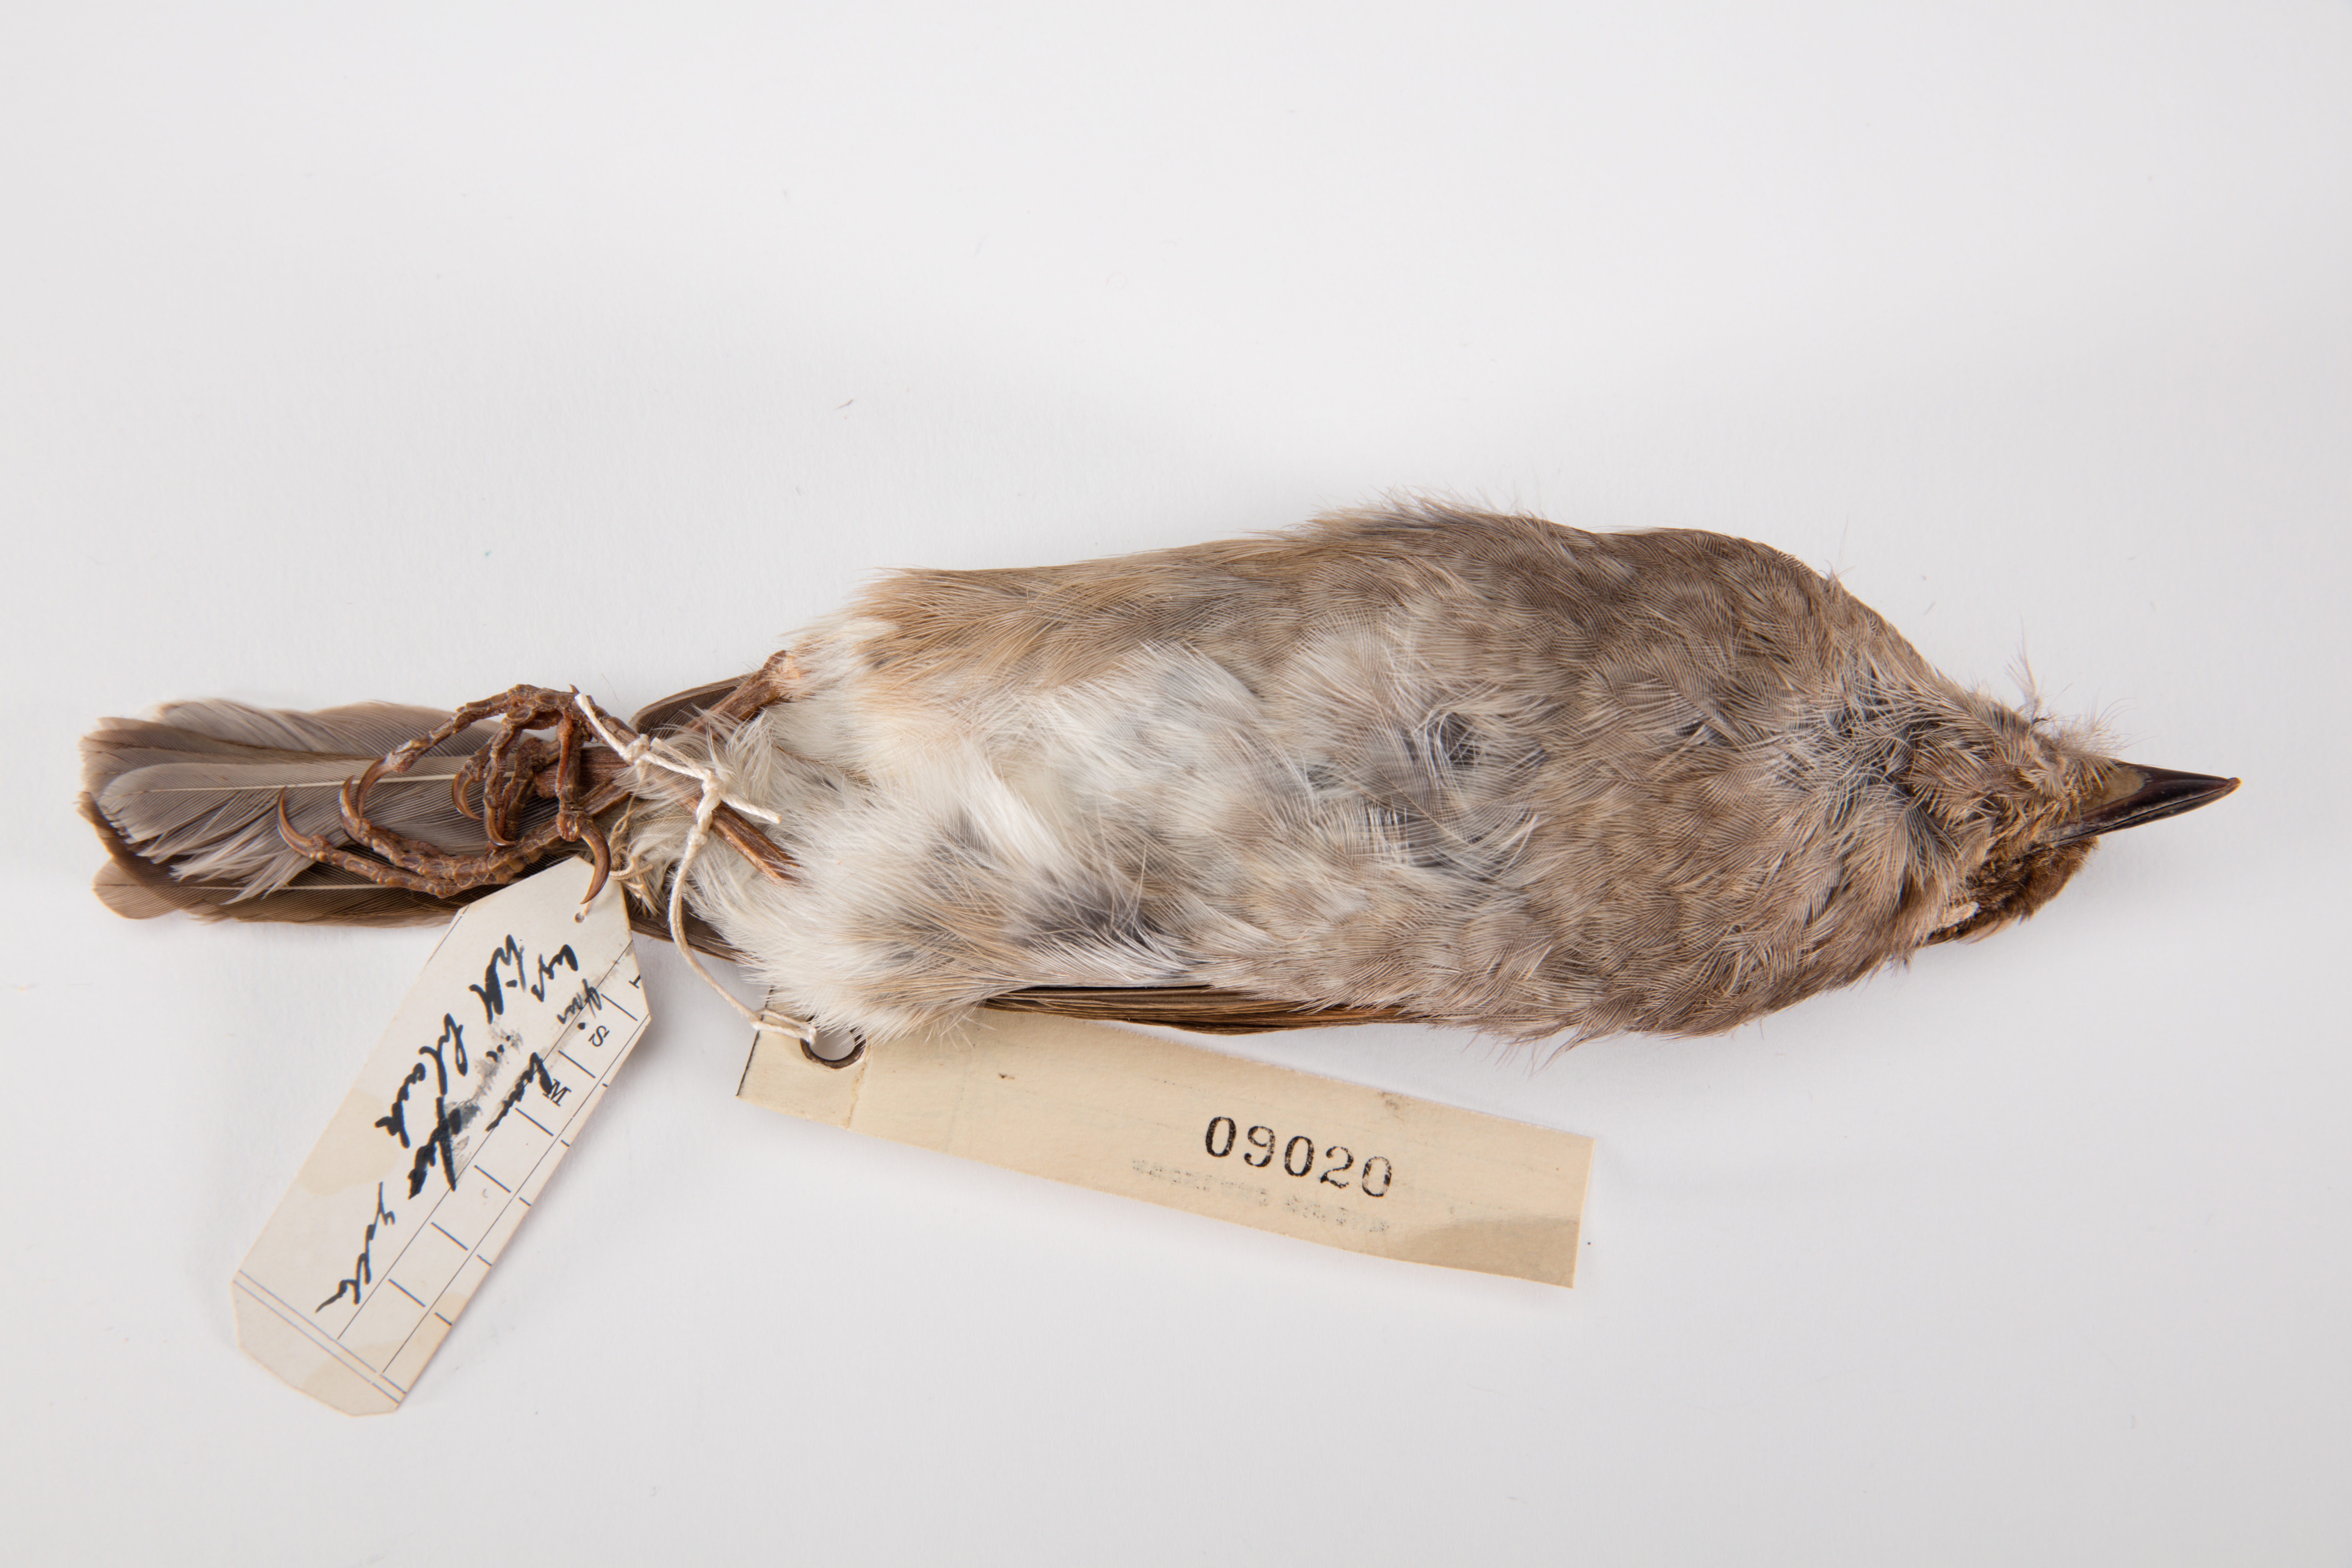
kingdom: Animalia
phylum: Chordata
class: Aves
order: Passeriformes
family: Turdidae
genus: Myadestes
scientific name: Myadestes myadestinus
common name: Kamao
